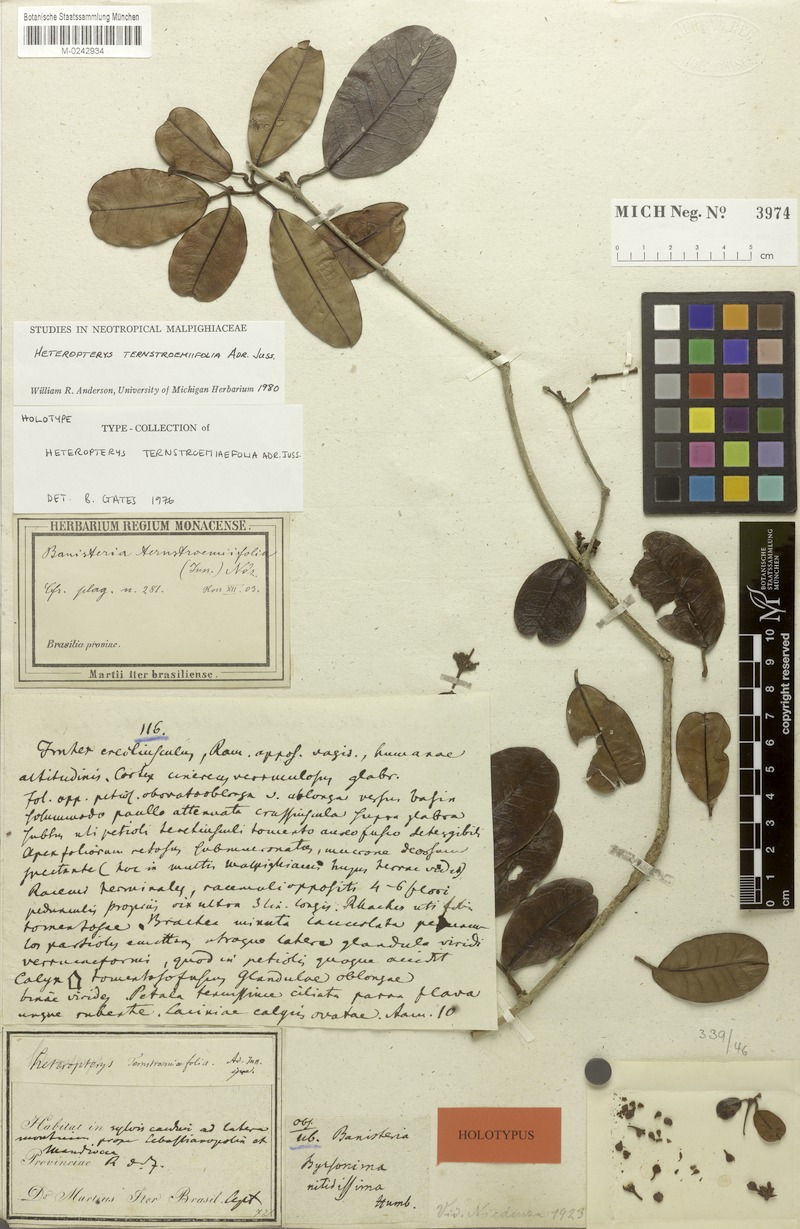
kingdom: Plantae
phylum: Tracheophyta
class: Magnoliopsida
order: Malpighiales
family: Malpighiaceae
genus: Heteropterys
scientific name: Heteropterys ternstroemiifolia
